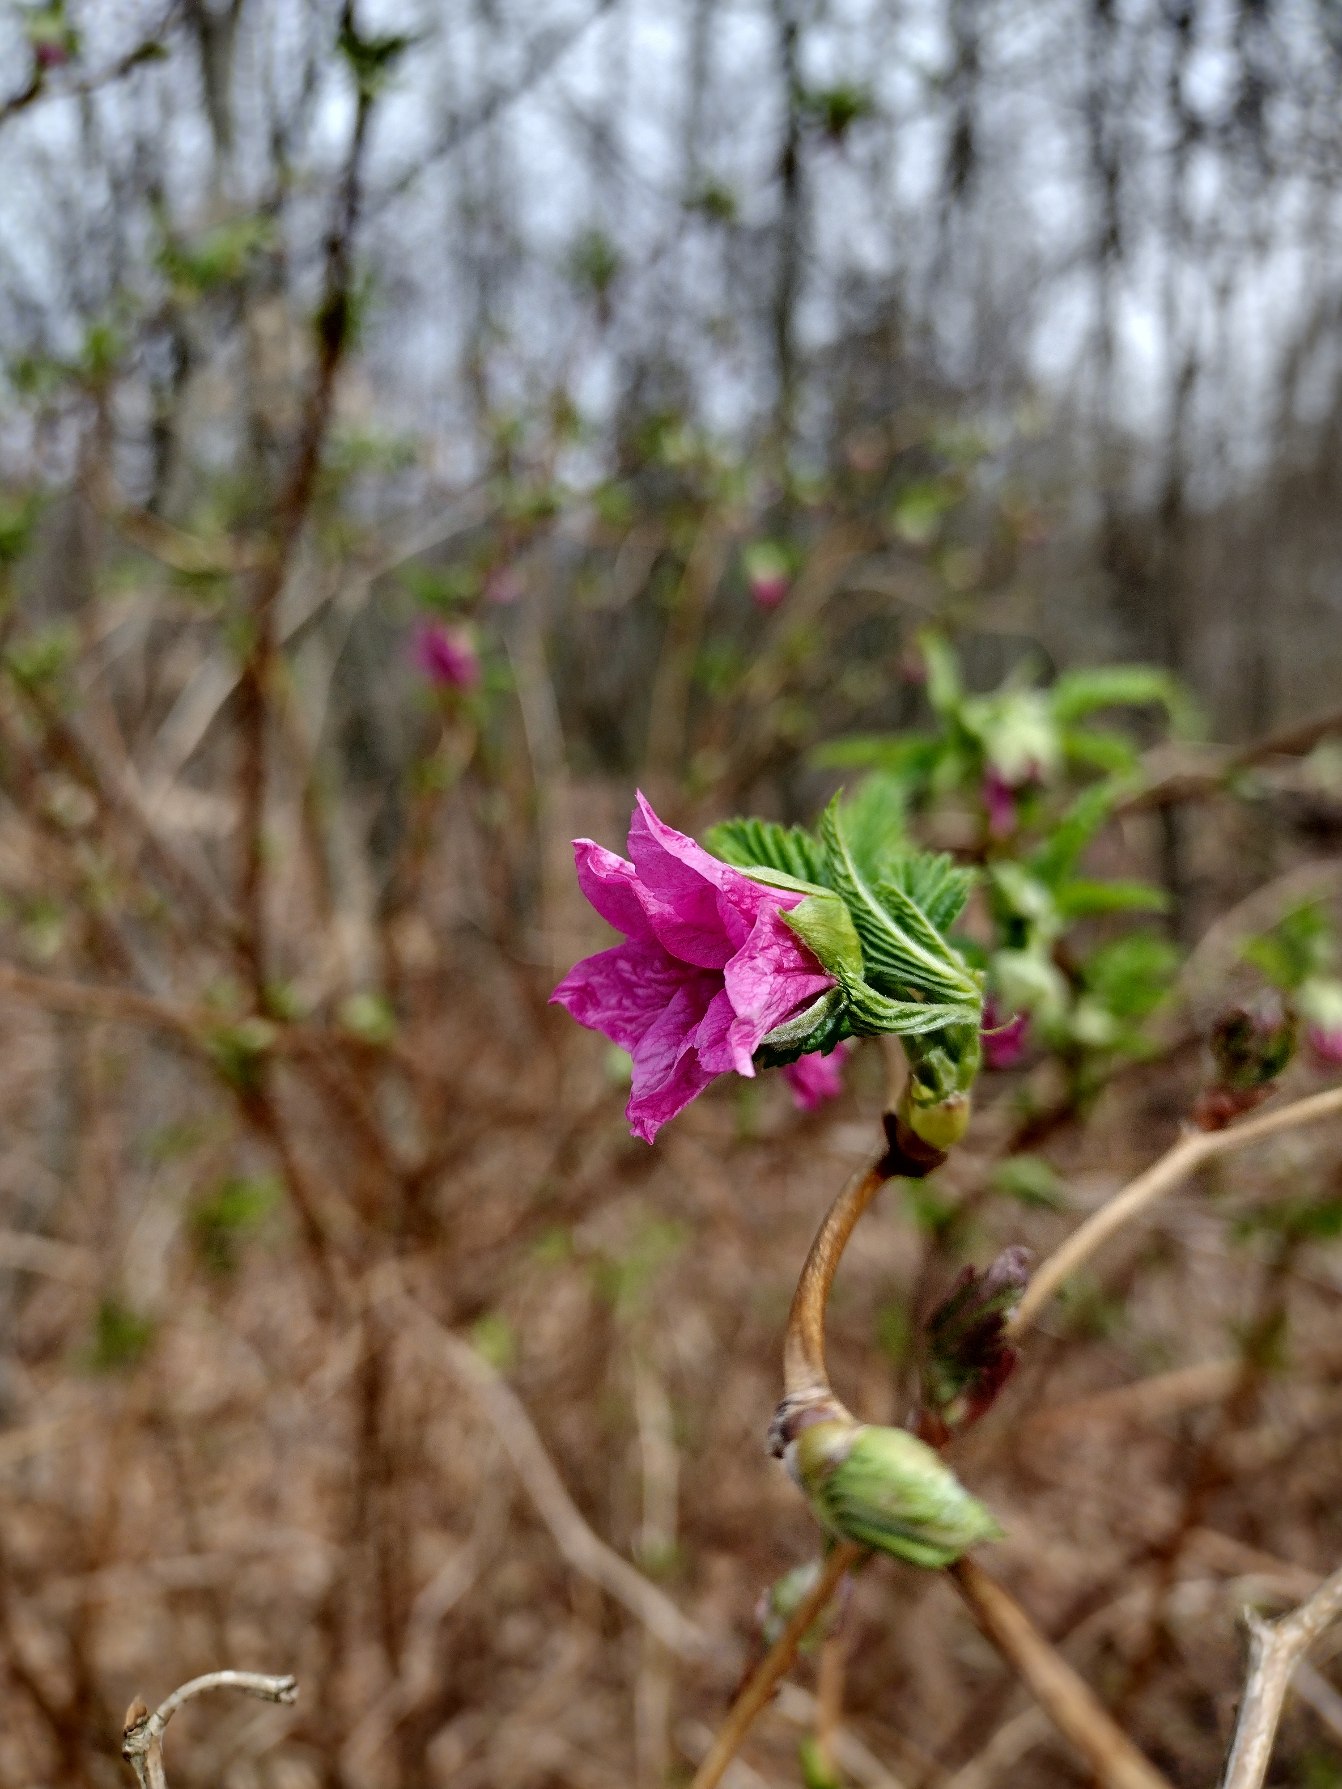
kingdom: Plantae
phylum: Tracheophyta
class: Magnoliopsida
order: Rosales
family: Rosaceae
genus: Rubus
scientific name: Rubus spectabilis
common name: Laksebær
